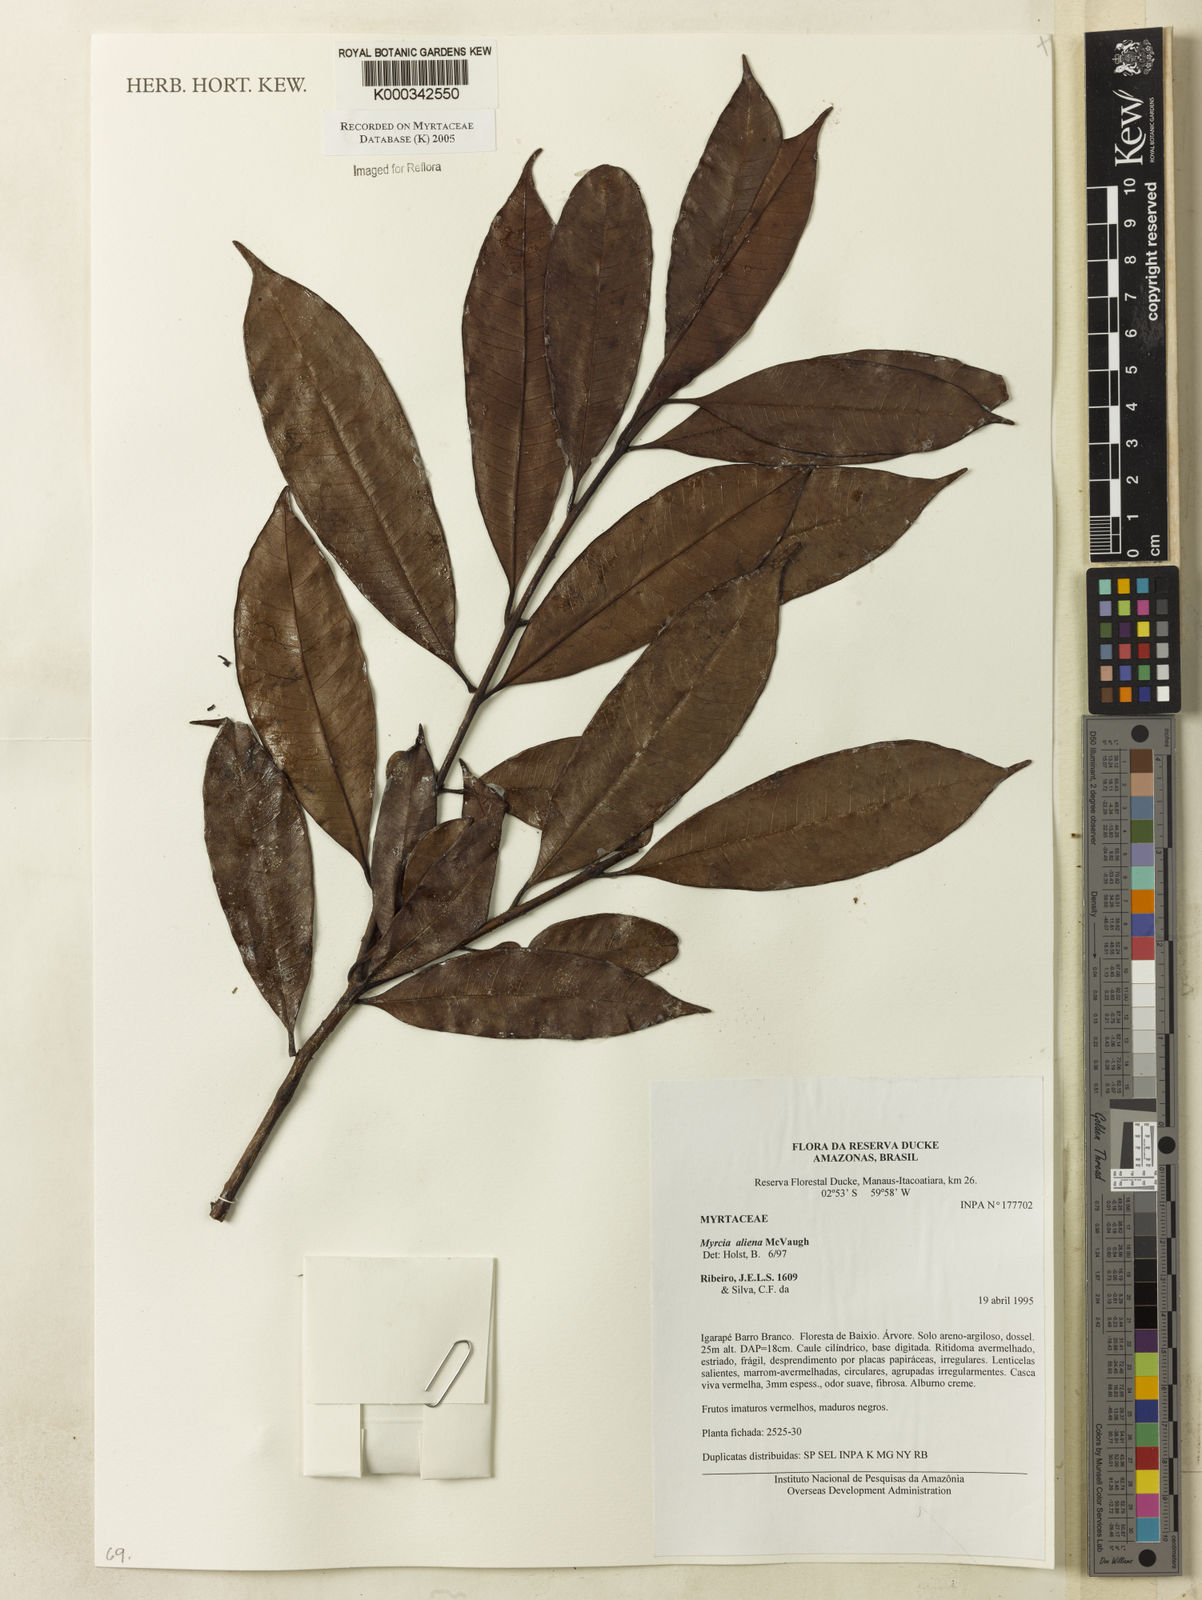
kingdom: Plantae
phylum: Tracheophyta
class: Magnoliopsida
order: Myrtales
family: Myrtaceae
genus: Myrcia
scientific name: Myrcia aliena
